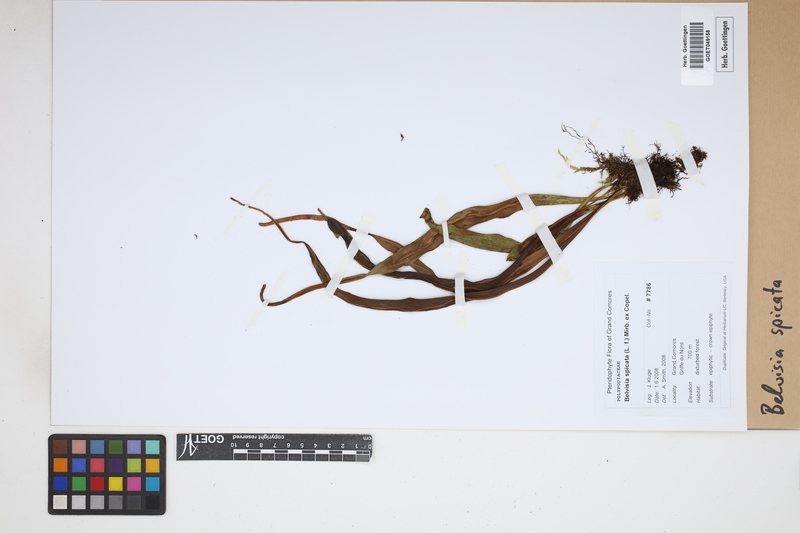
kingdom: Plantae
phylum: Tracheophyta
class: Polypodiopsida
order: Polypodiales
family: Polypodiaceae
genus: Lepisorus
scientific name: Lepisorus spicatus
